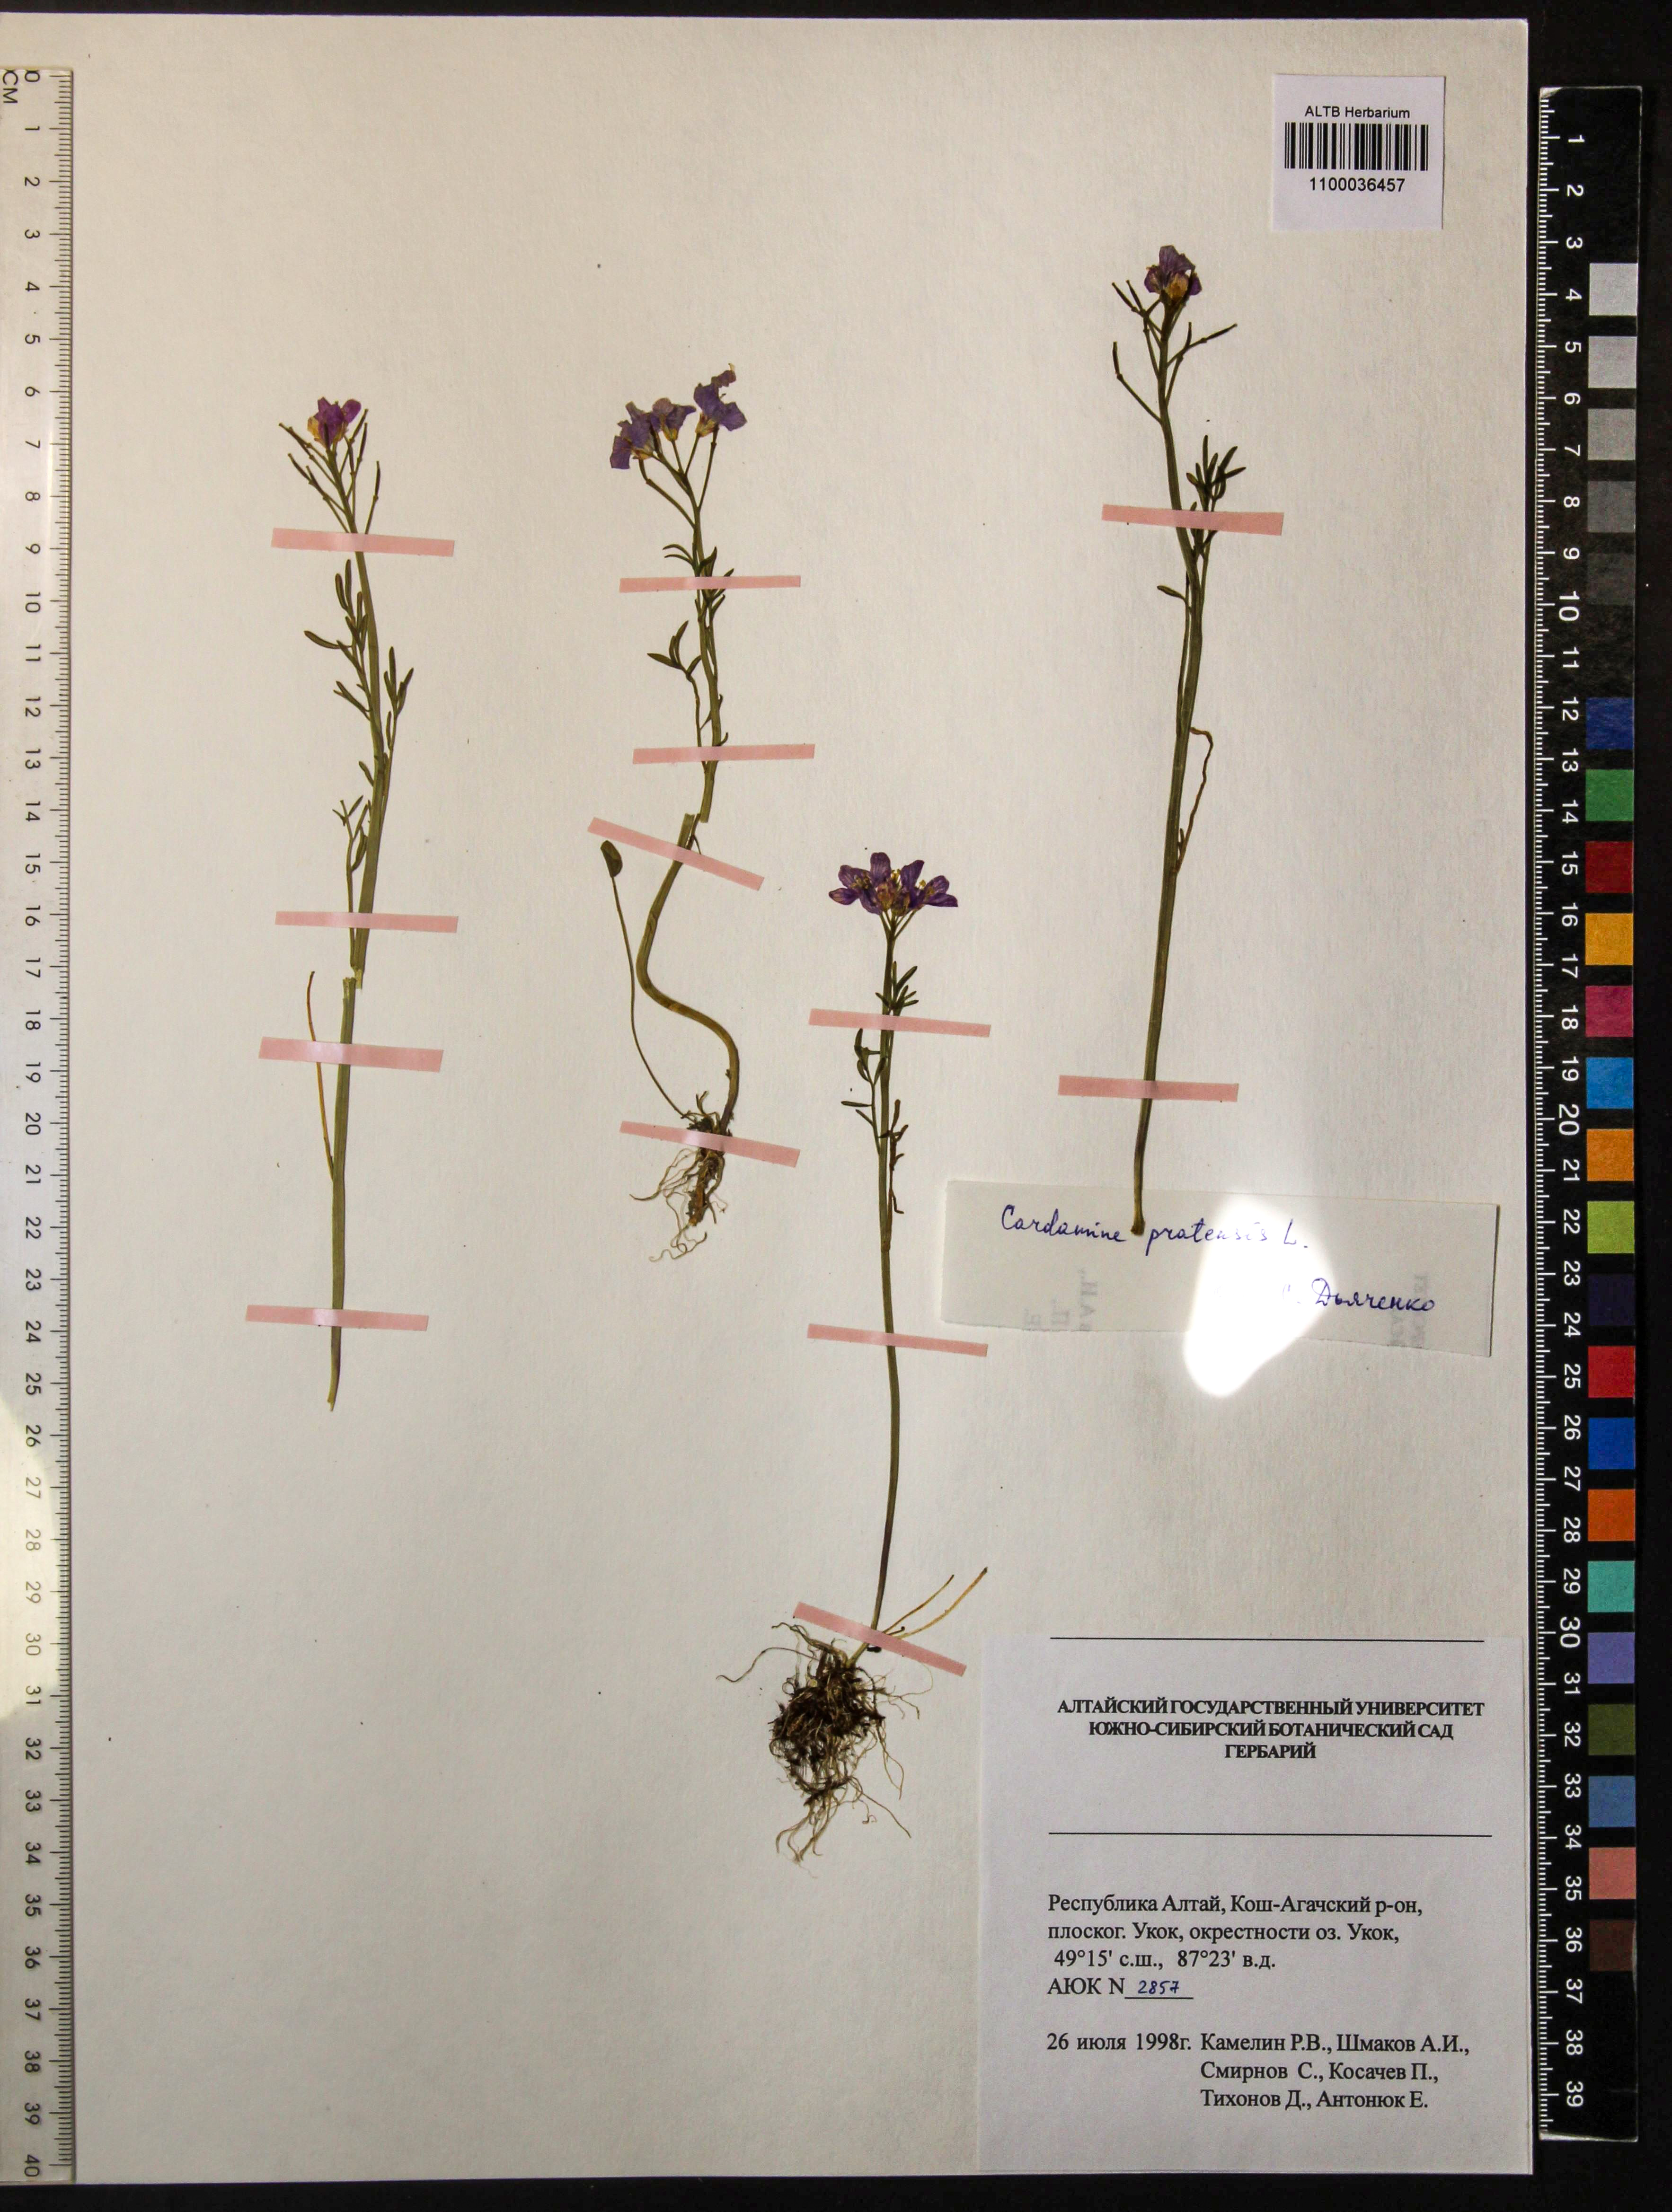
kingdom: Plantae
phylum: Tracheophyta
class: Magnoliopsida
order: Brassicales
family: Brassicaceae
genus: Cardamine
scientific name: Cardamine pratensis
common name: Cuckoo flower
